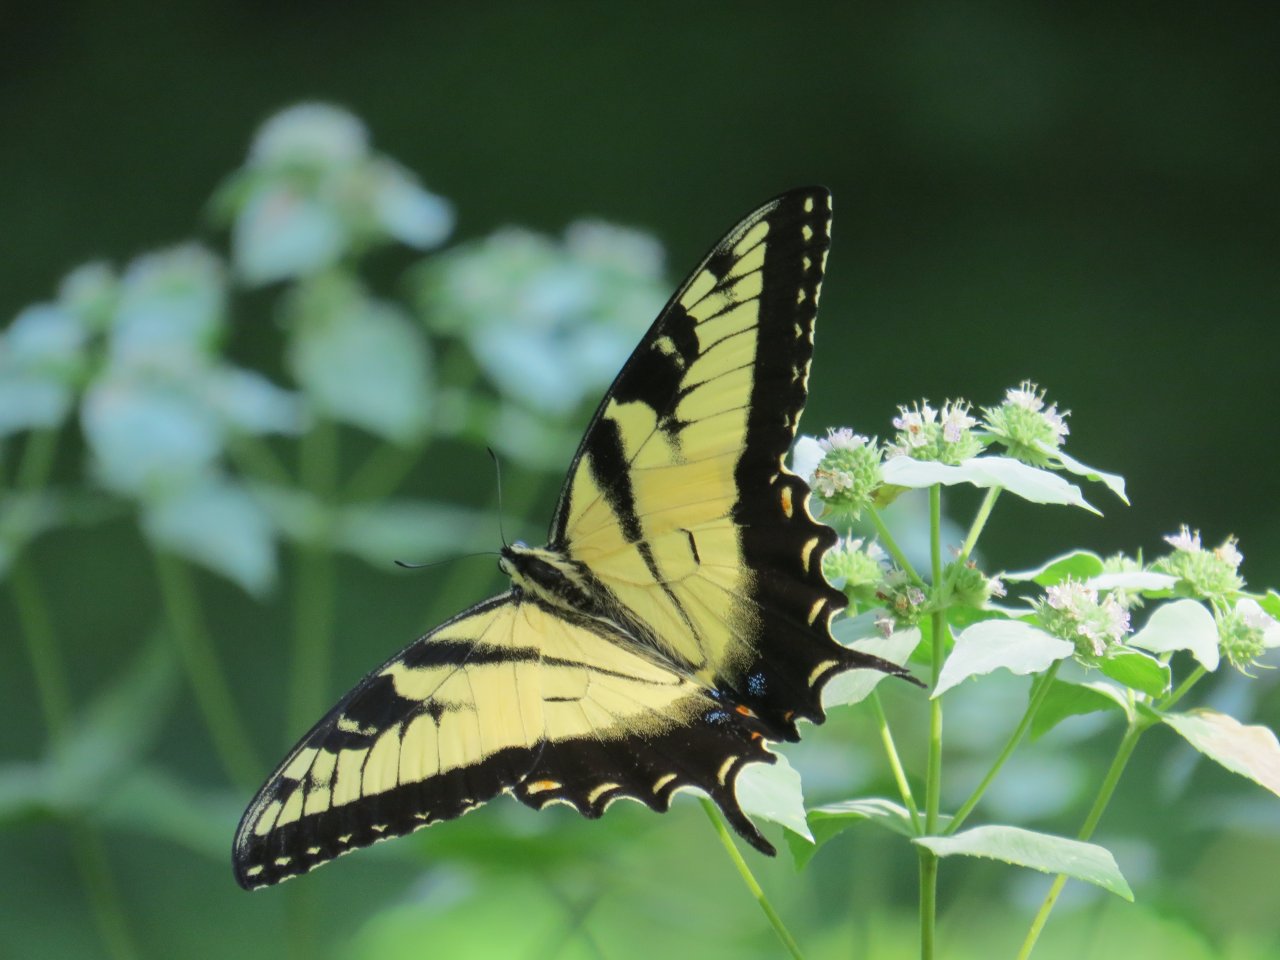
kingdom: Animalia
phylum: Arthropoda
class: Insecta
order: Lepidoptera
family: Papilionidae
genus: Pterourus
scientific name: Pterourus glaucus
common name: Eastern Tiger Swallowtail
